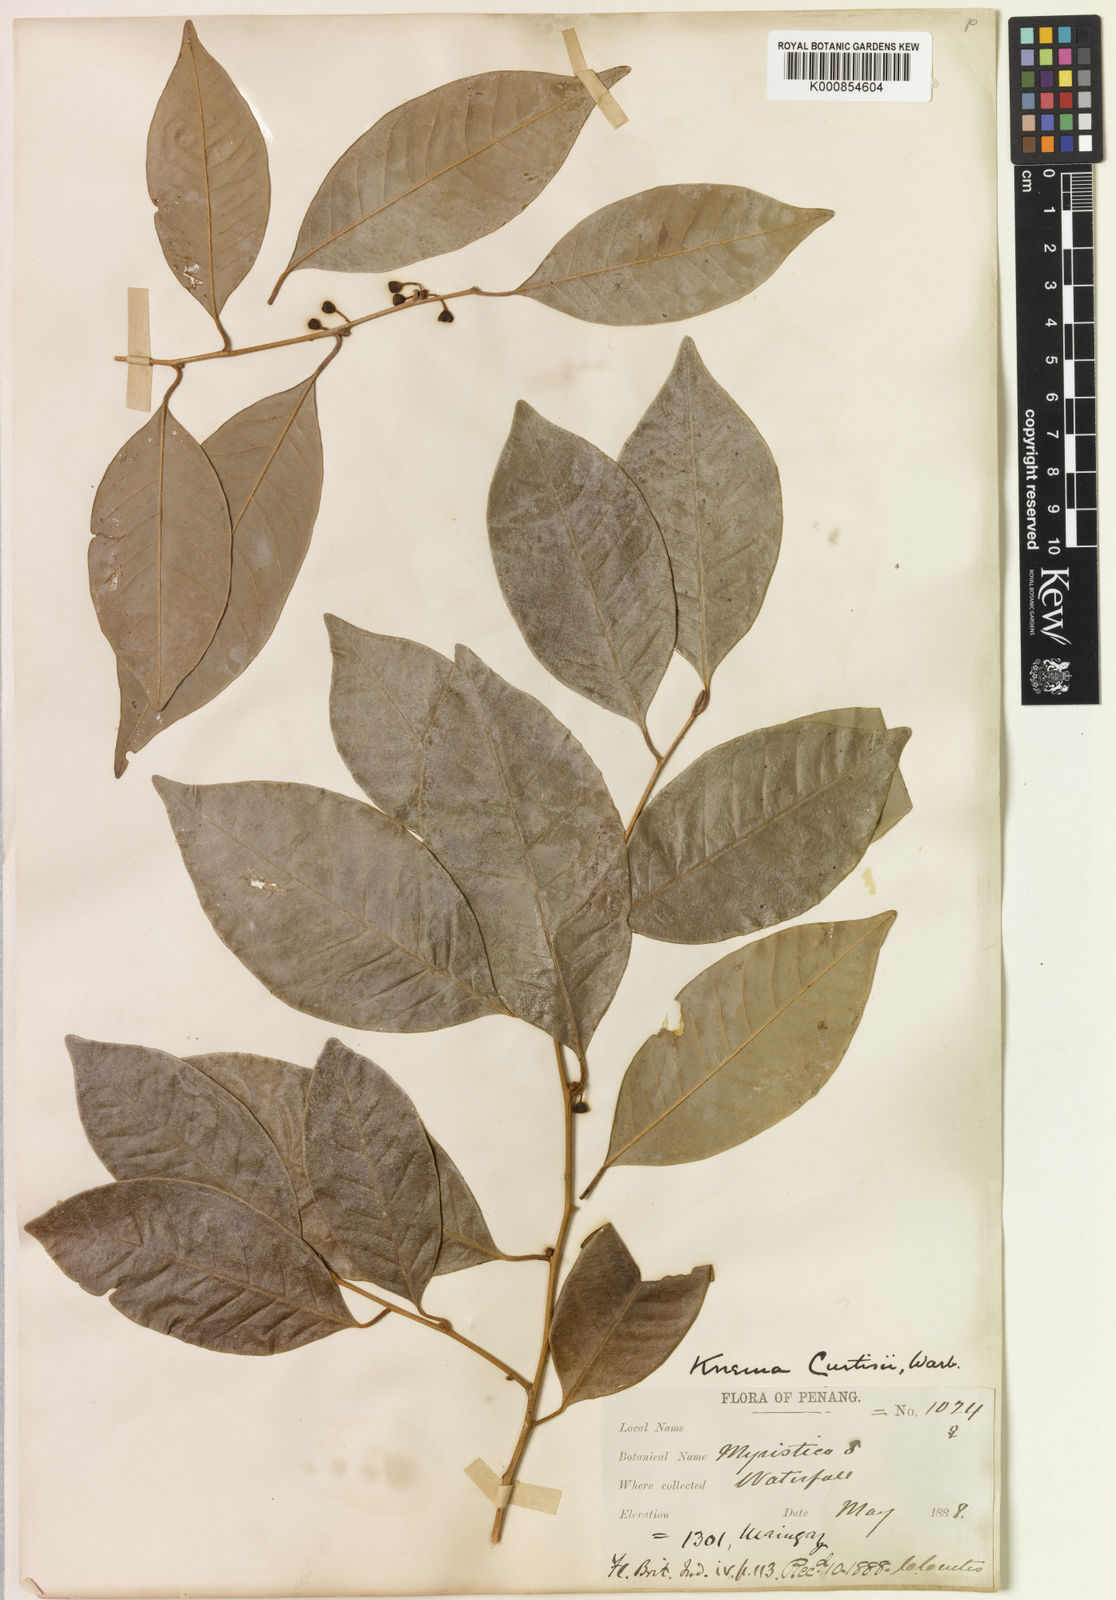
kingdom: Plantae
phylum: Tracheophyta
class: Magnoliopsida
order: Magnoliales
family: Myristicaceae
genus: Knema
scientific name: Knema curtisii
